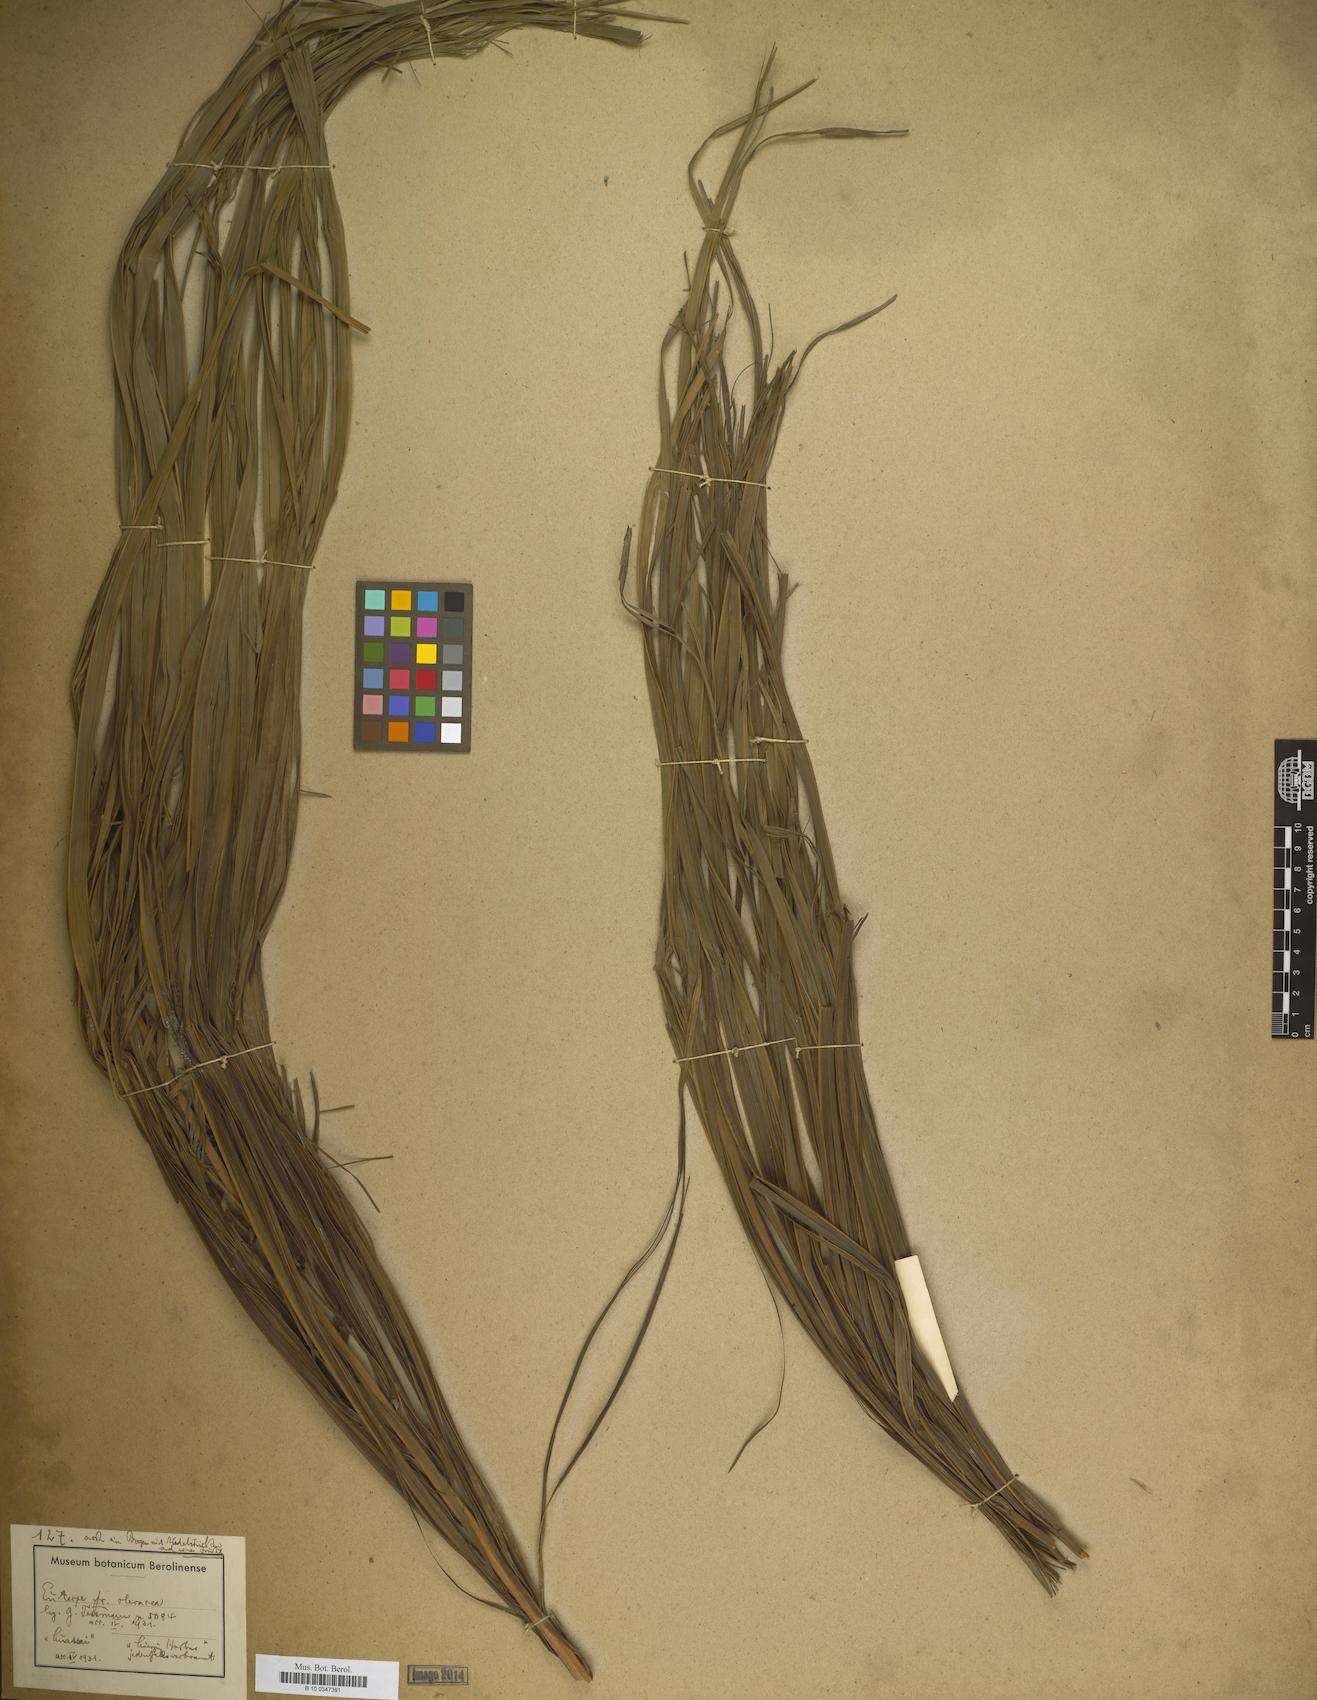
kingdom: Plantae
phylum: Tracheophyta
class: Liliopsida
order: Arecales
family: Arecaceae
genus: Euterpe
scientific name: Euterpe
